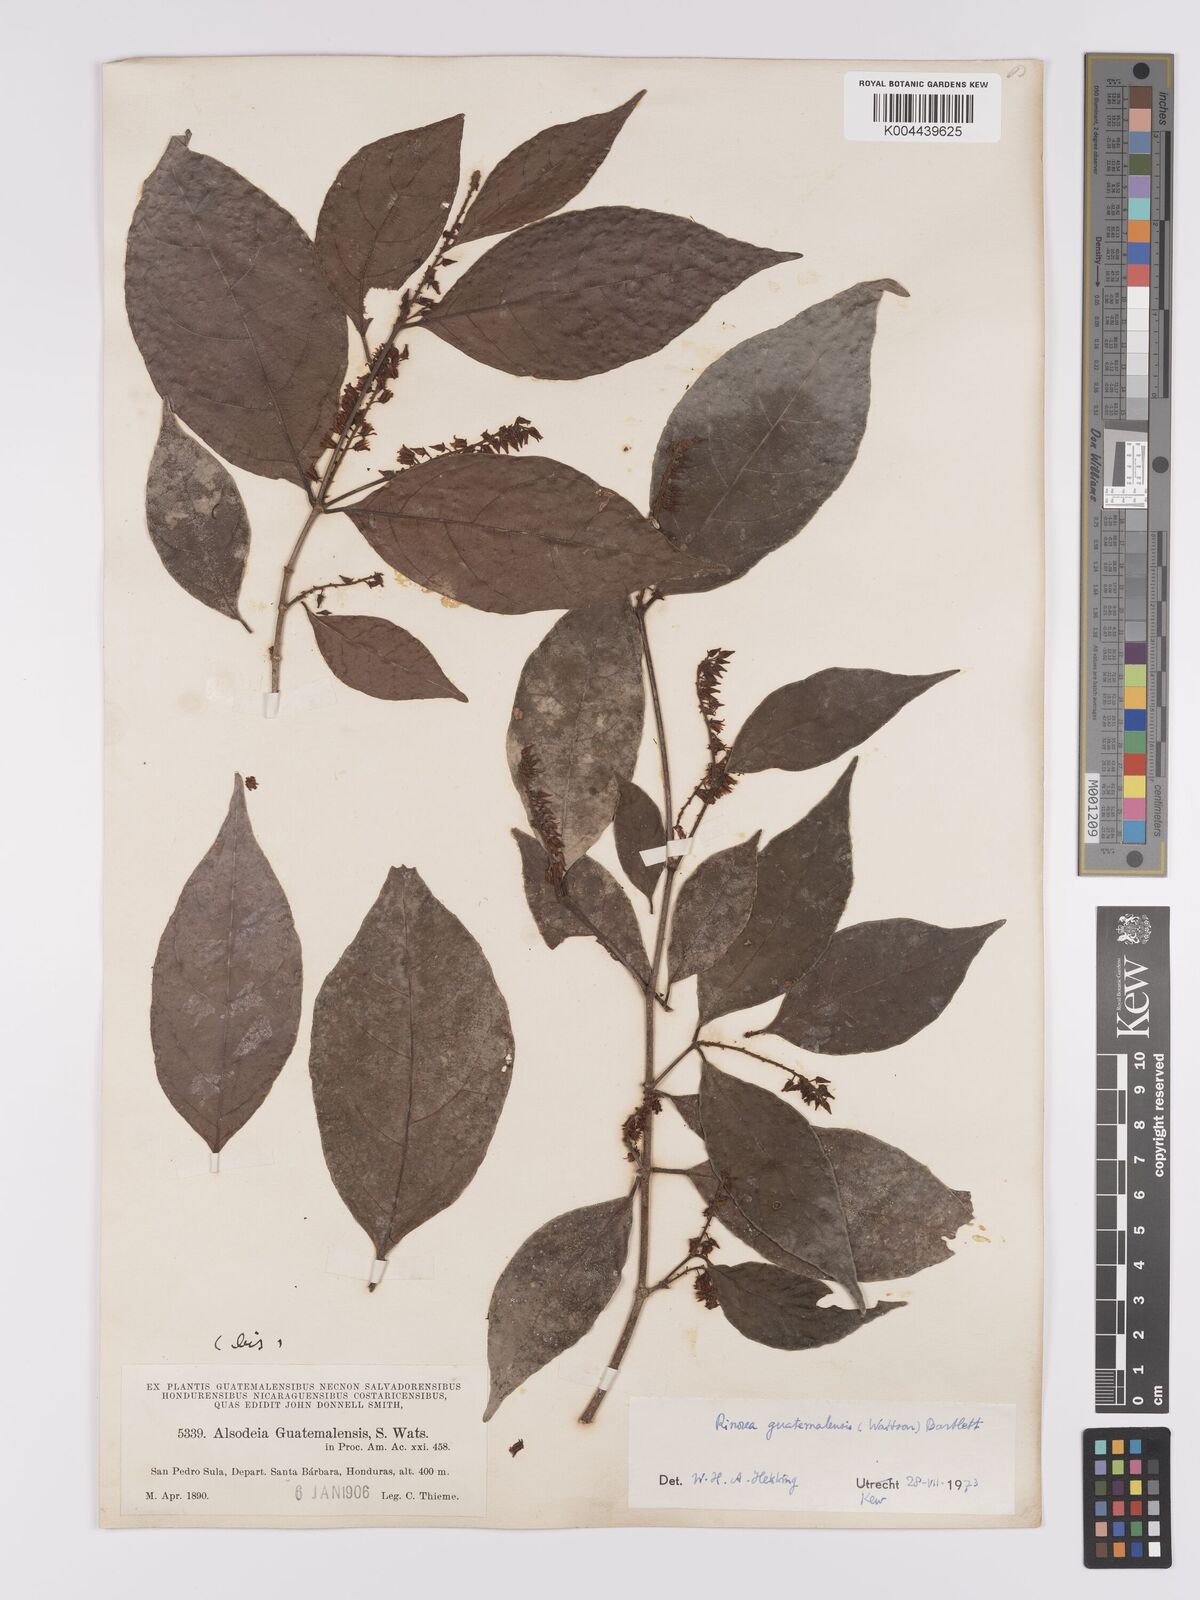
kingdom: Plantae
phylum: Tracheophyta
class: Magnoliopsida
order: Malpighiales
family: Violaceae
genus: Rinorea
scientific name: Rinorea guatemalensis
